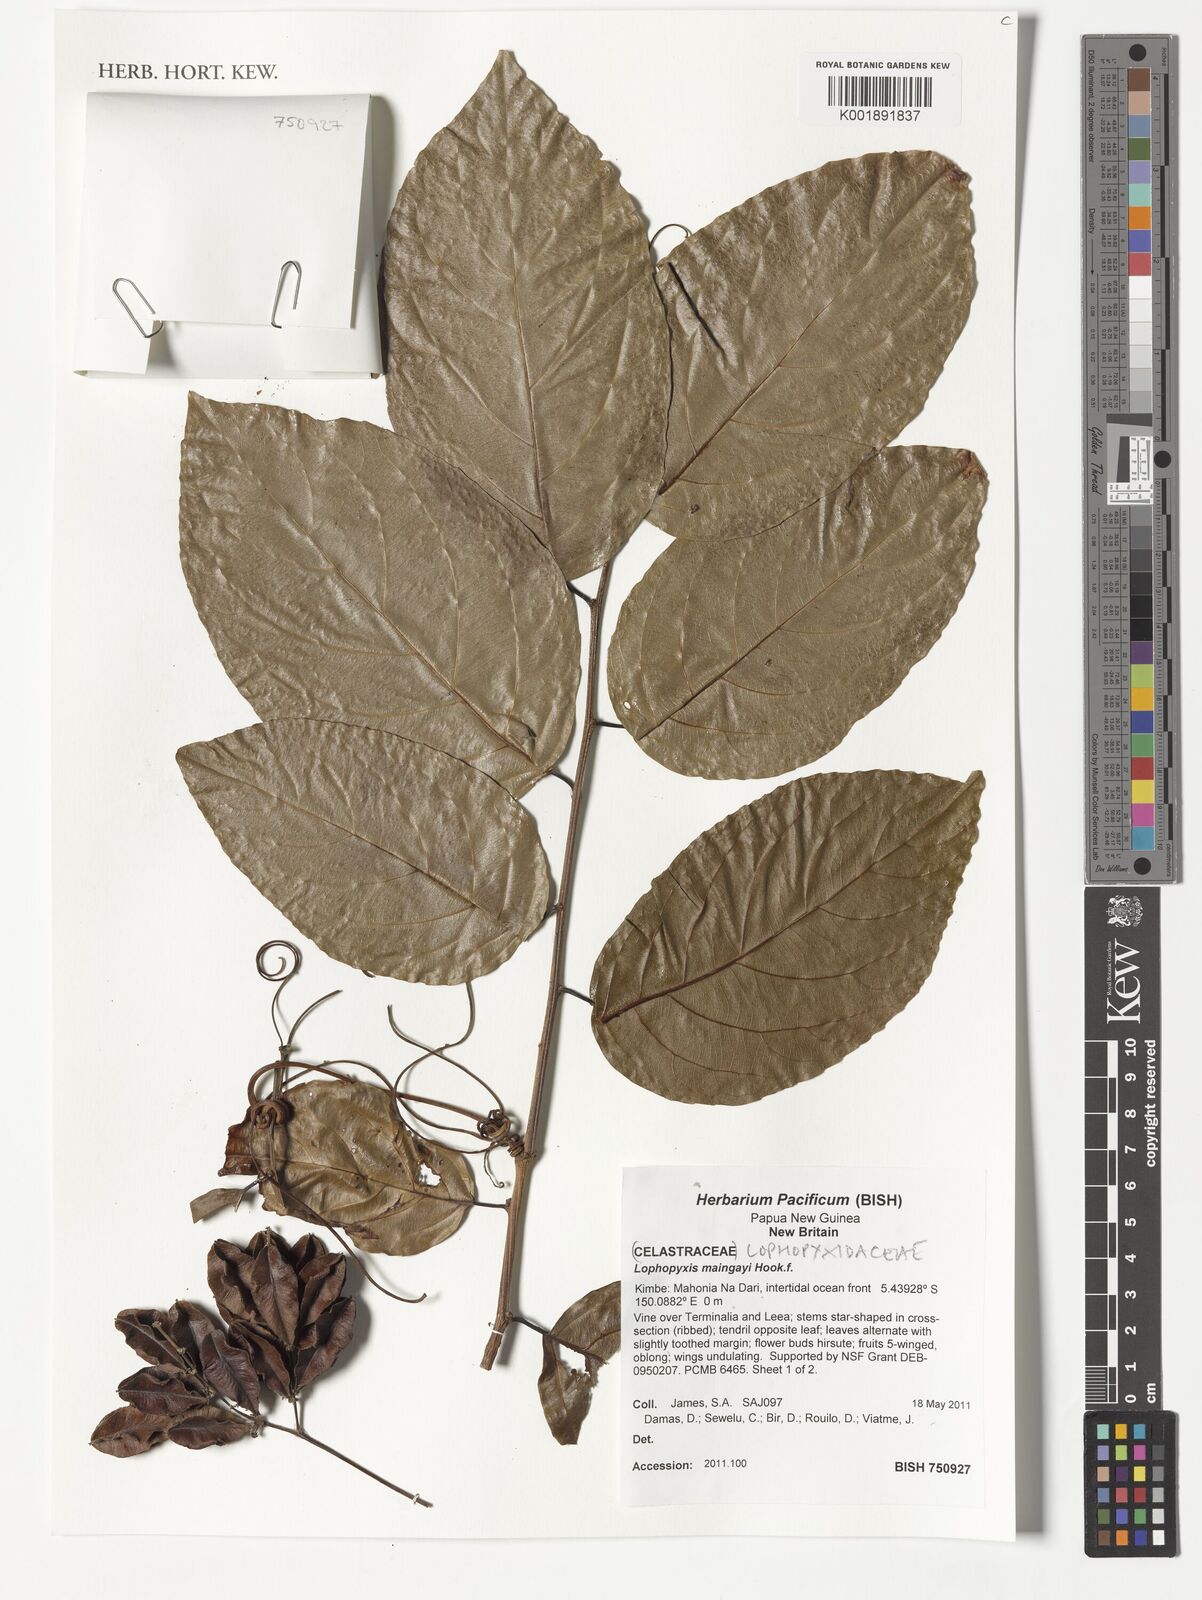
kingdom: Plantae
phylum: Tracheophyta
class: Magnoliopsida
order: Malpighiales
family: Lophopyxidaceae
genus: Lophopyxis
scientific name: Lophopyxis maingayi
